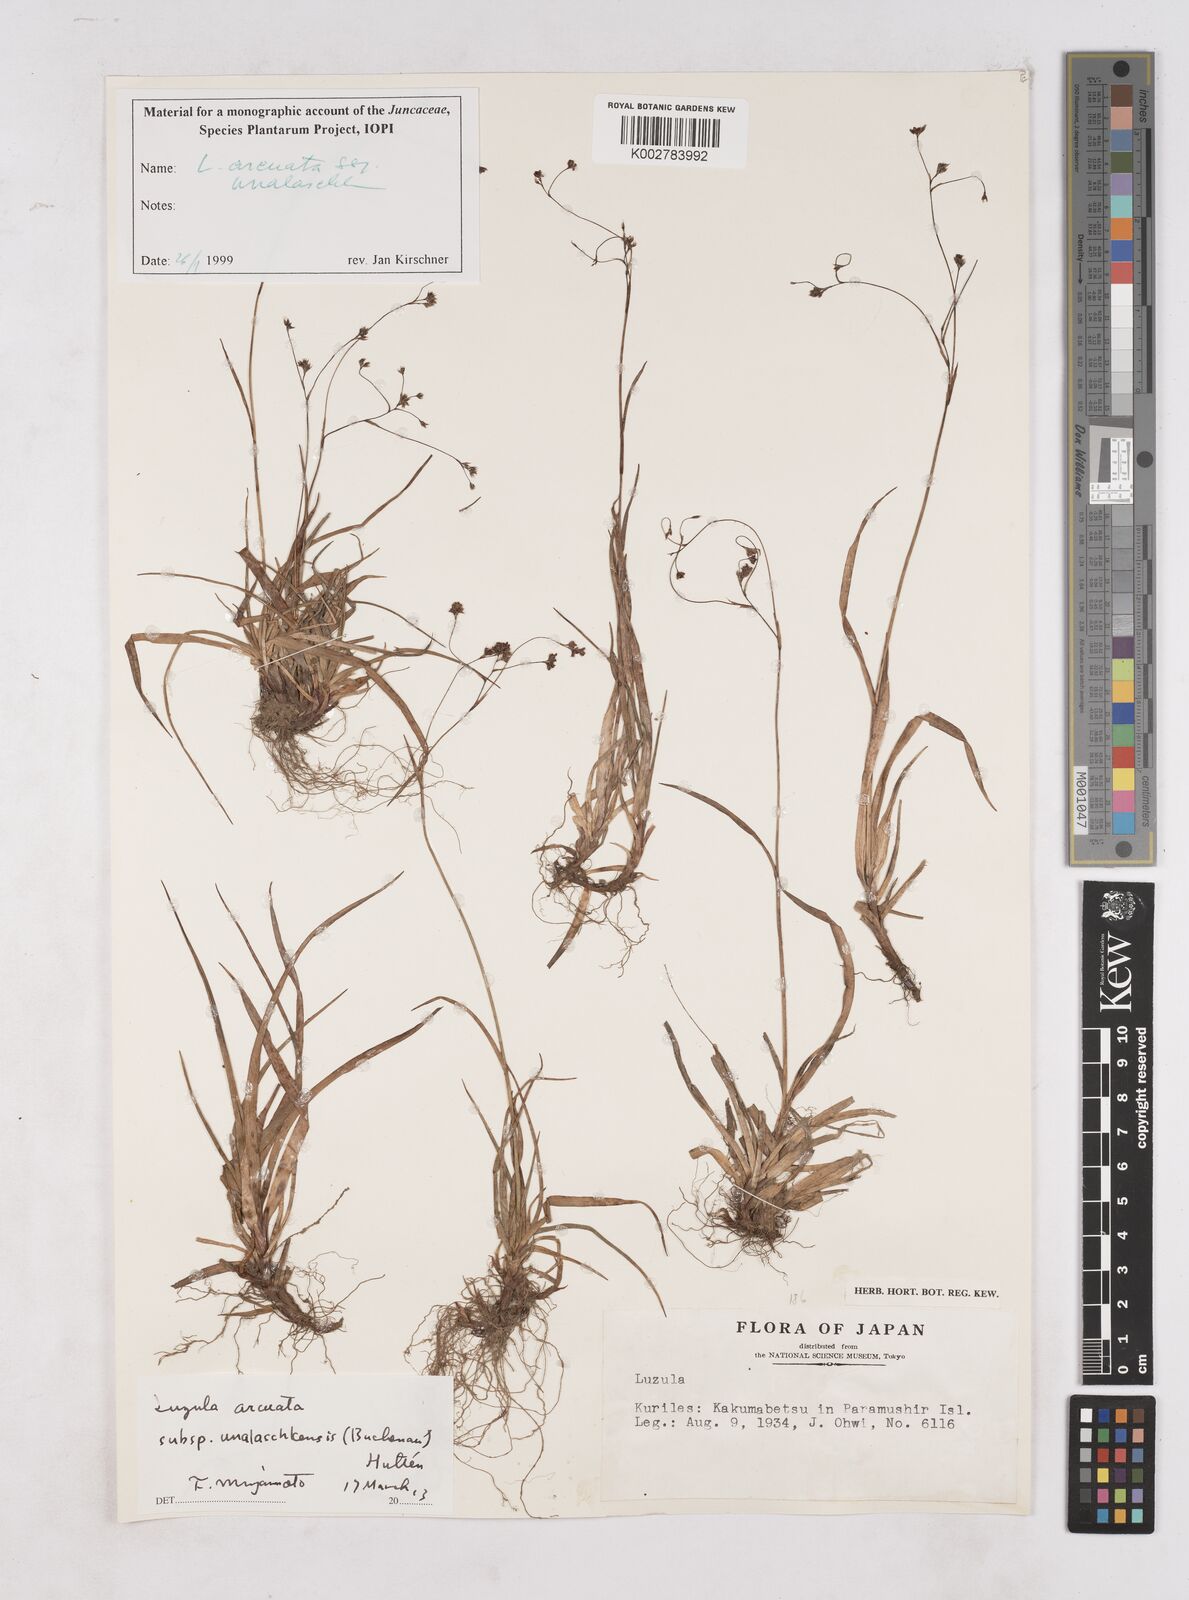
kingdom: Plantae
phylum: Tracheophyta
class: Liliopsida
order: Poales
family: Juncaceae
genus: Luzula
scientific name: Luzula arcuata
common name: Curved wood-rush
